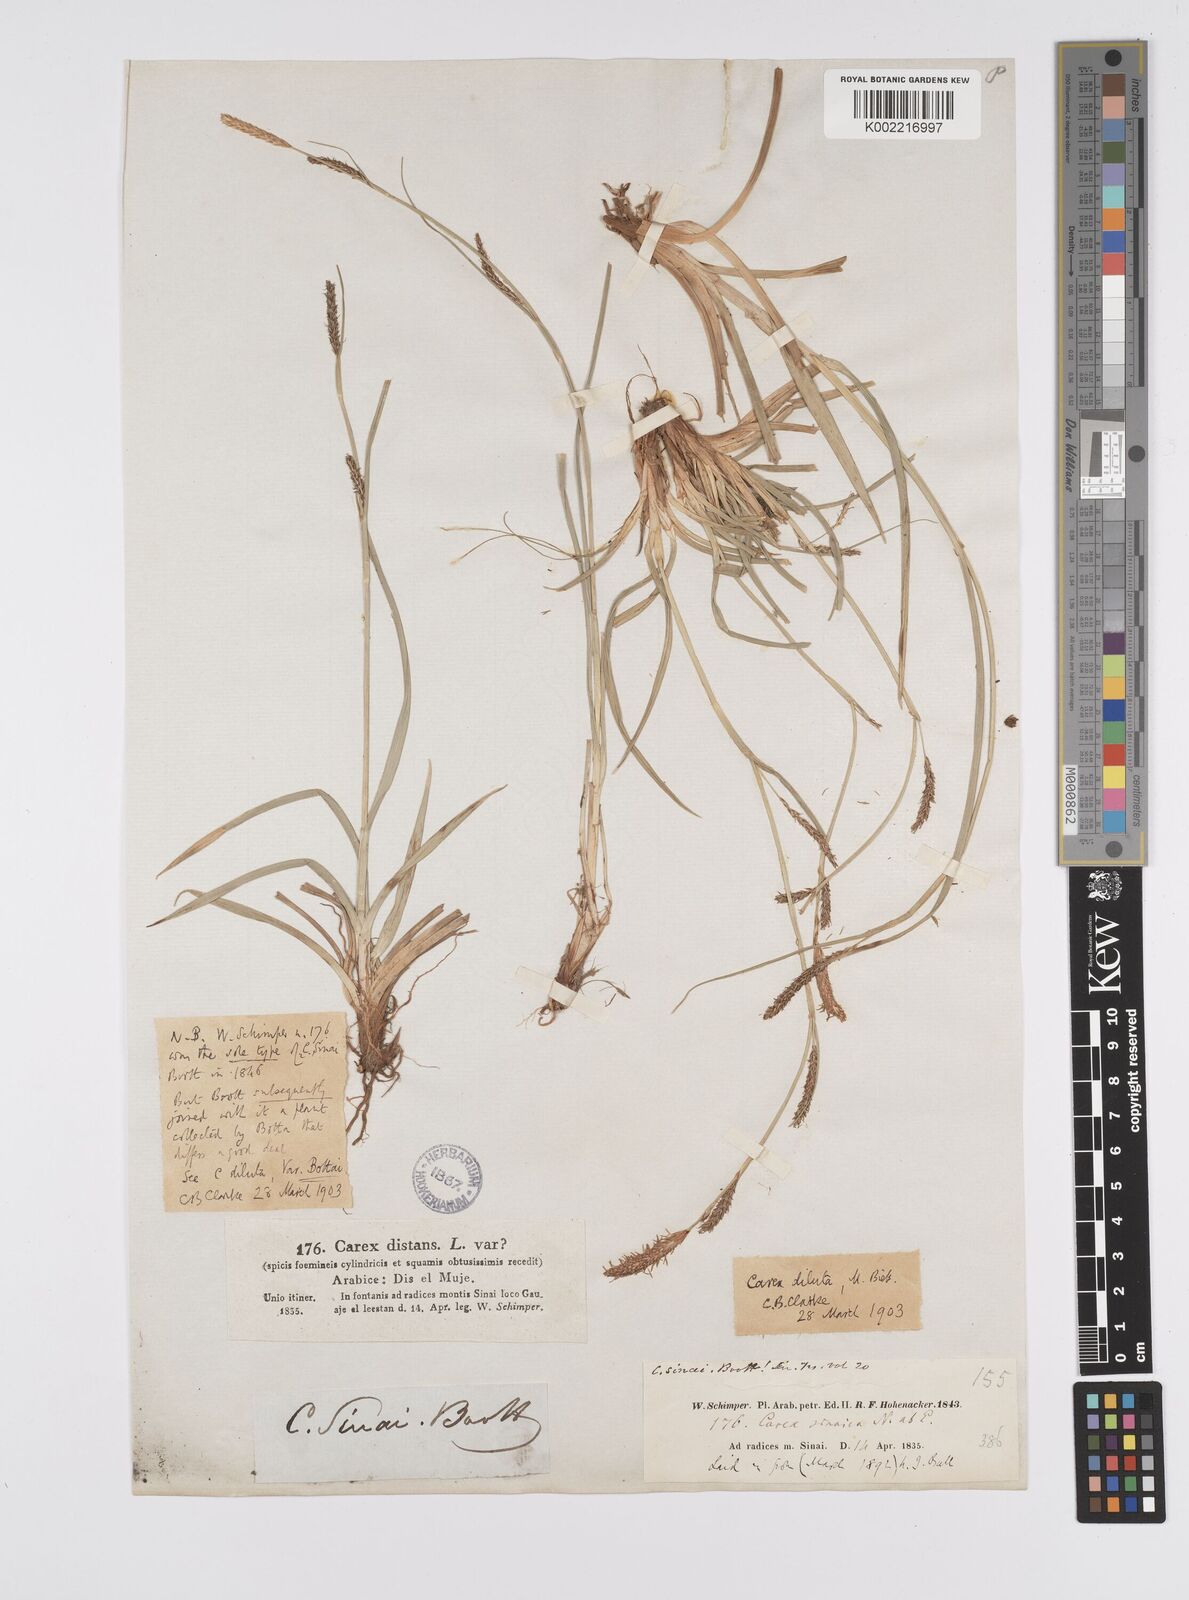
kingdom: Plantae
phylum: Tracheophyta
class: Liliopsida
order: Poales
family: Cyperaceae
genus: Carex
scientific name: Carex distans
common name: Distant sedge
